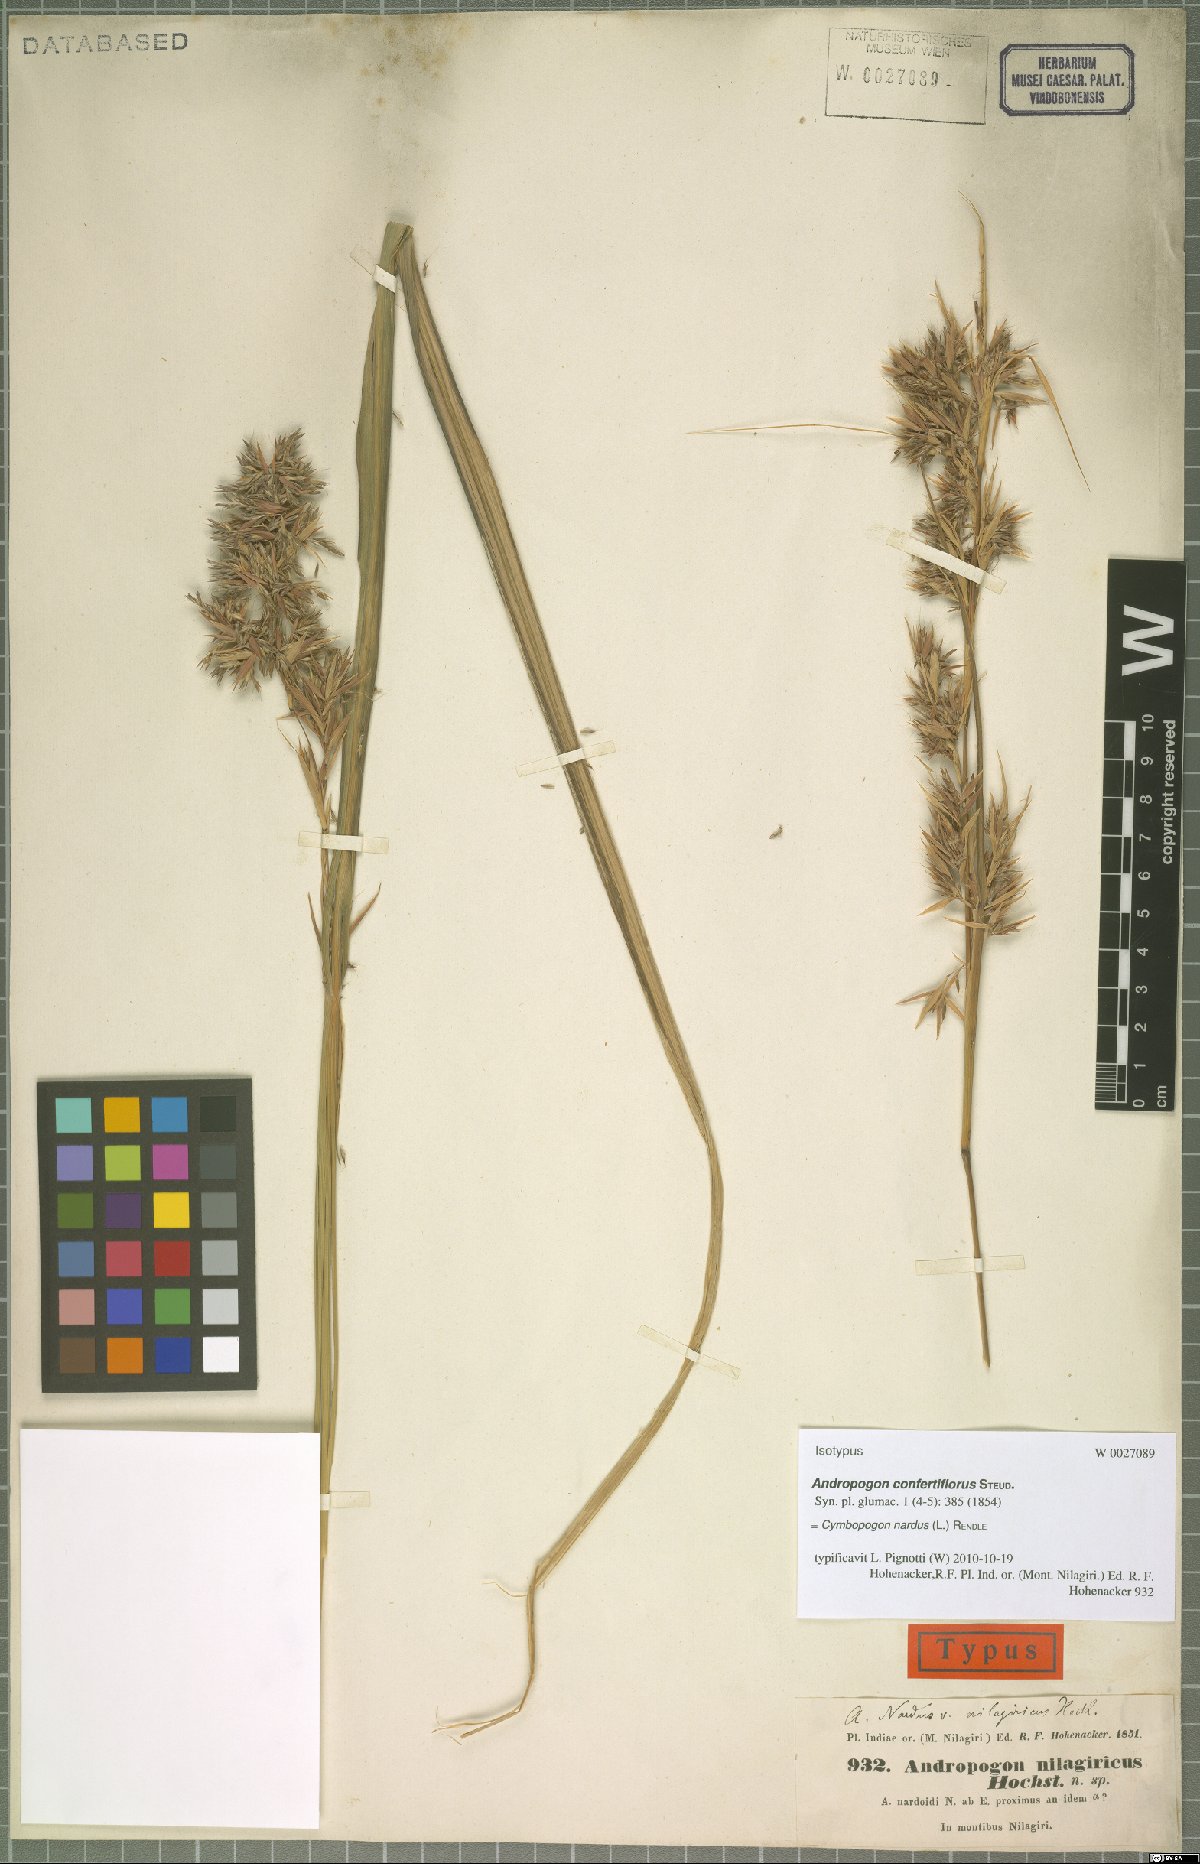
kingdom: Plantae
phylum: Tracheophyta
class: Liliopsida
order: Poales
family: Poaceae
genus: Cymbopogon
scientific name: Cymbopogon nardus
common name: Giant turpentine grass
